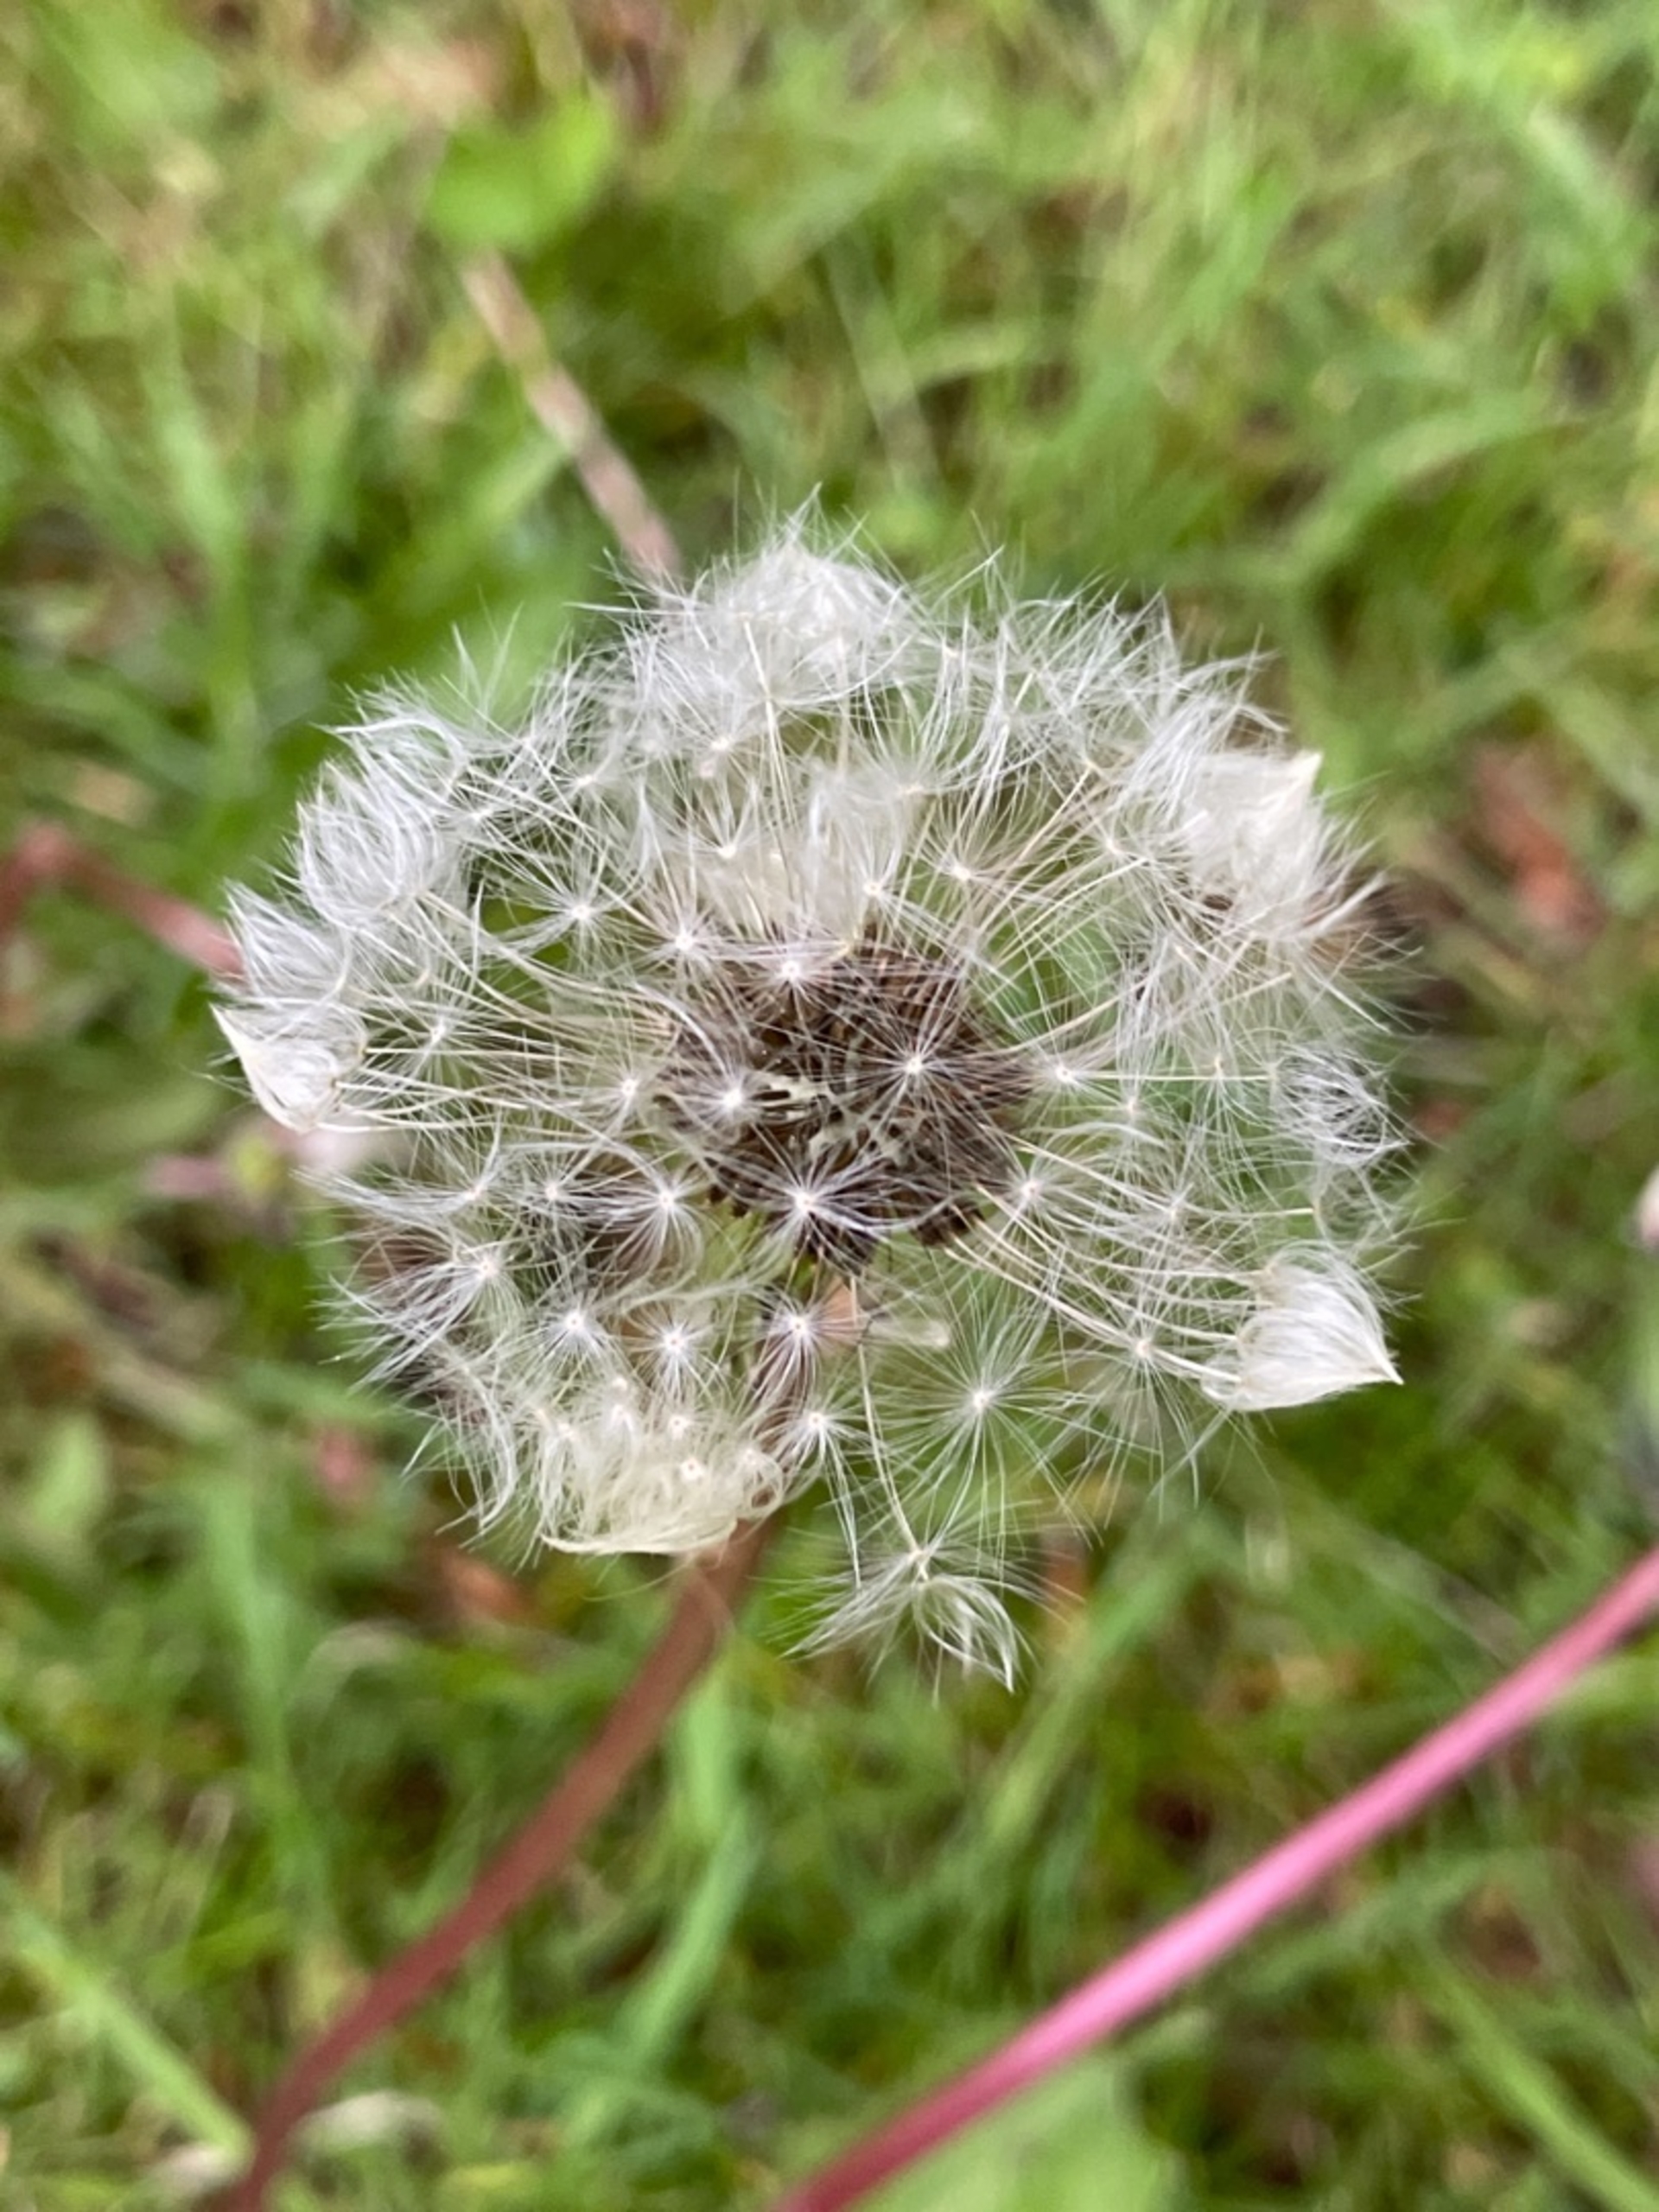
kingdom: Plantae
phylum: Tracheophyta
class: Magnoliopsida
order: Asterales
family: Asteraceae
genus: Taraxacum
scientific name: Taraxacum
